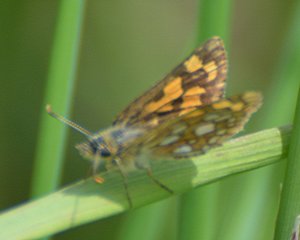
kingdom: Animalia
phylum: Arthropoda
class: Insecta
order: Lepidoptera
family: Hesperiidae
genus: Carterocephalus
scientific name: Carterocephalus palaemon
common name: Chequered Skipper
